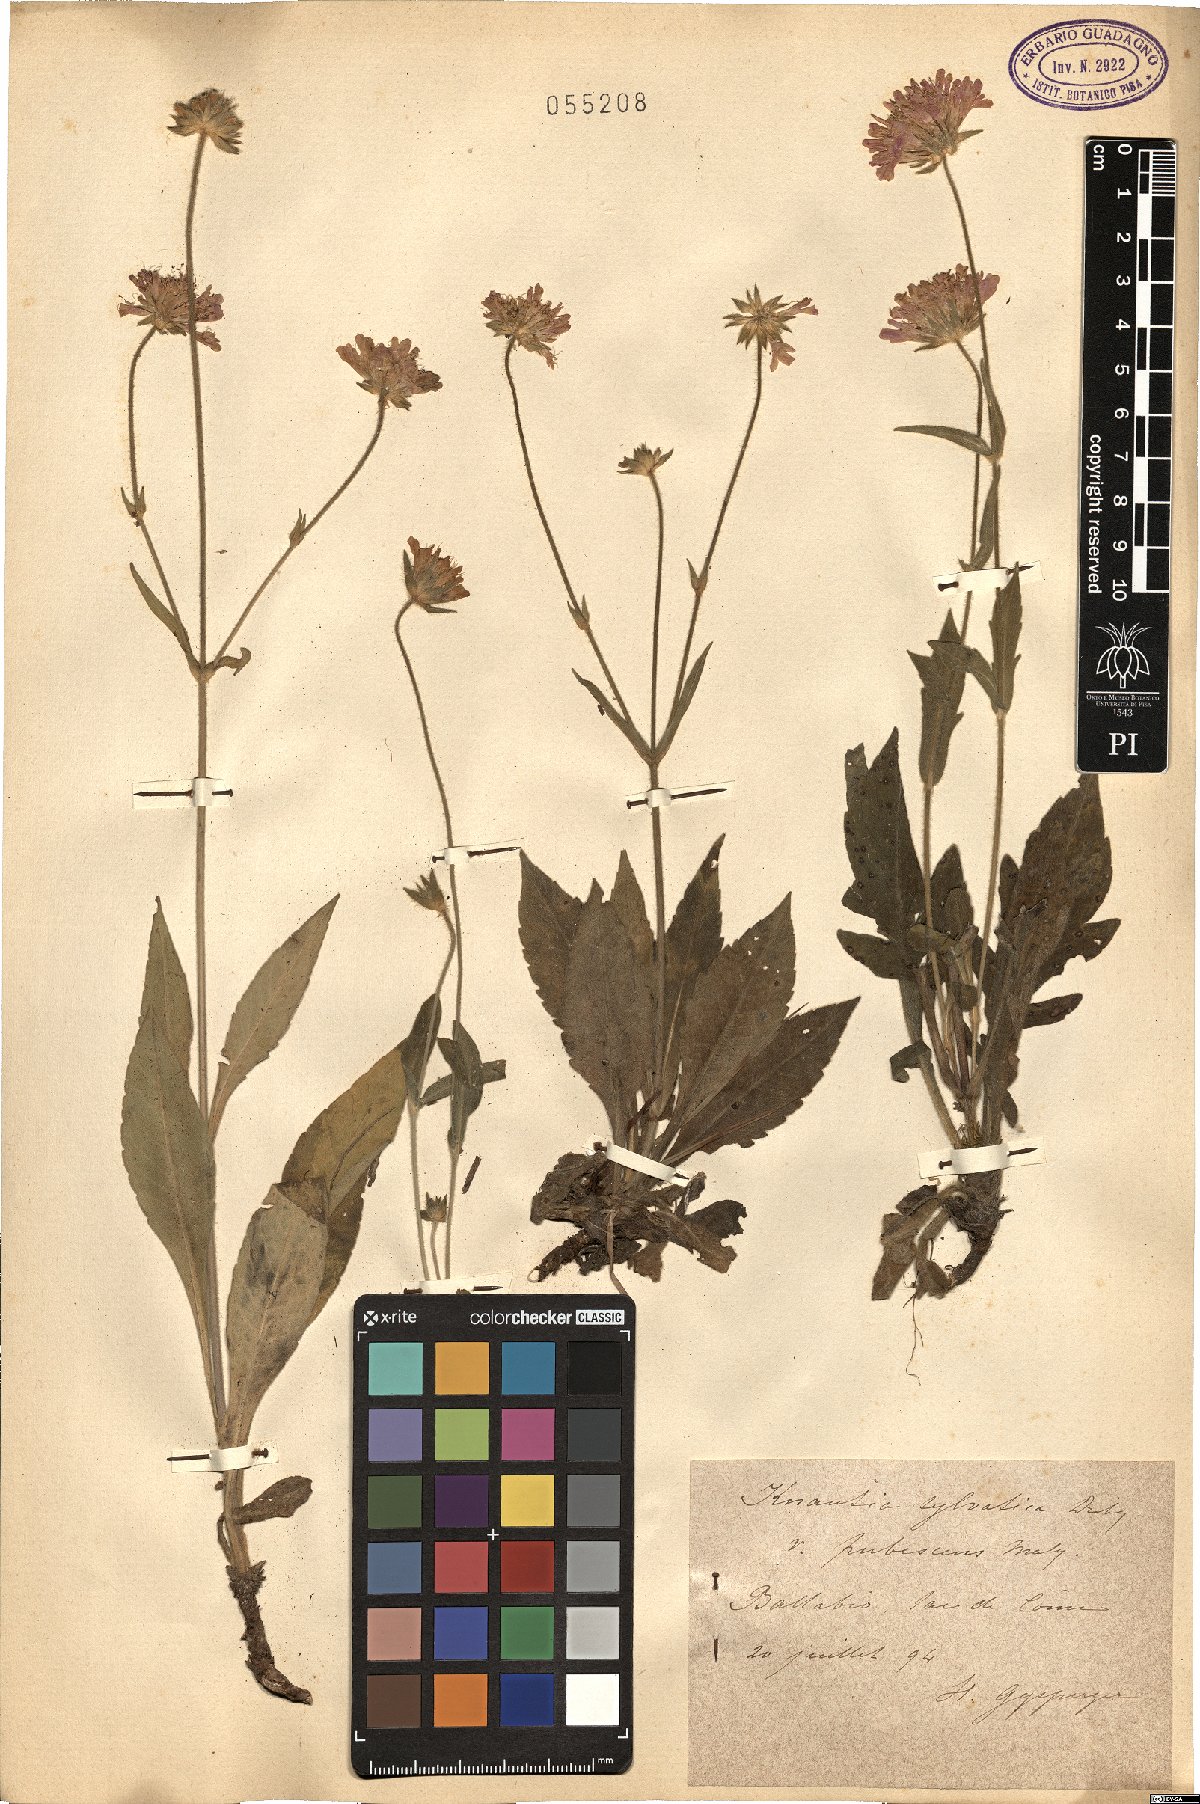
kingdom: Plantae
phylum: Tracheophyta
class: Magnoliopsida
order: Dipsacales
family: Caprifoliaceae
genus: Knautia
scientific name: Knautia drymeia
